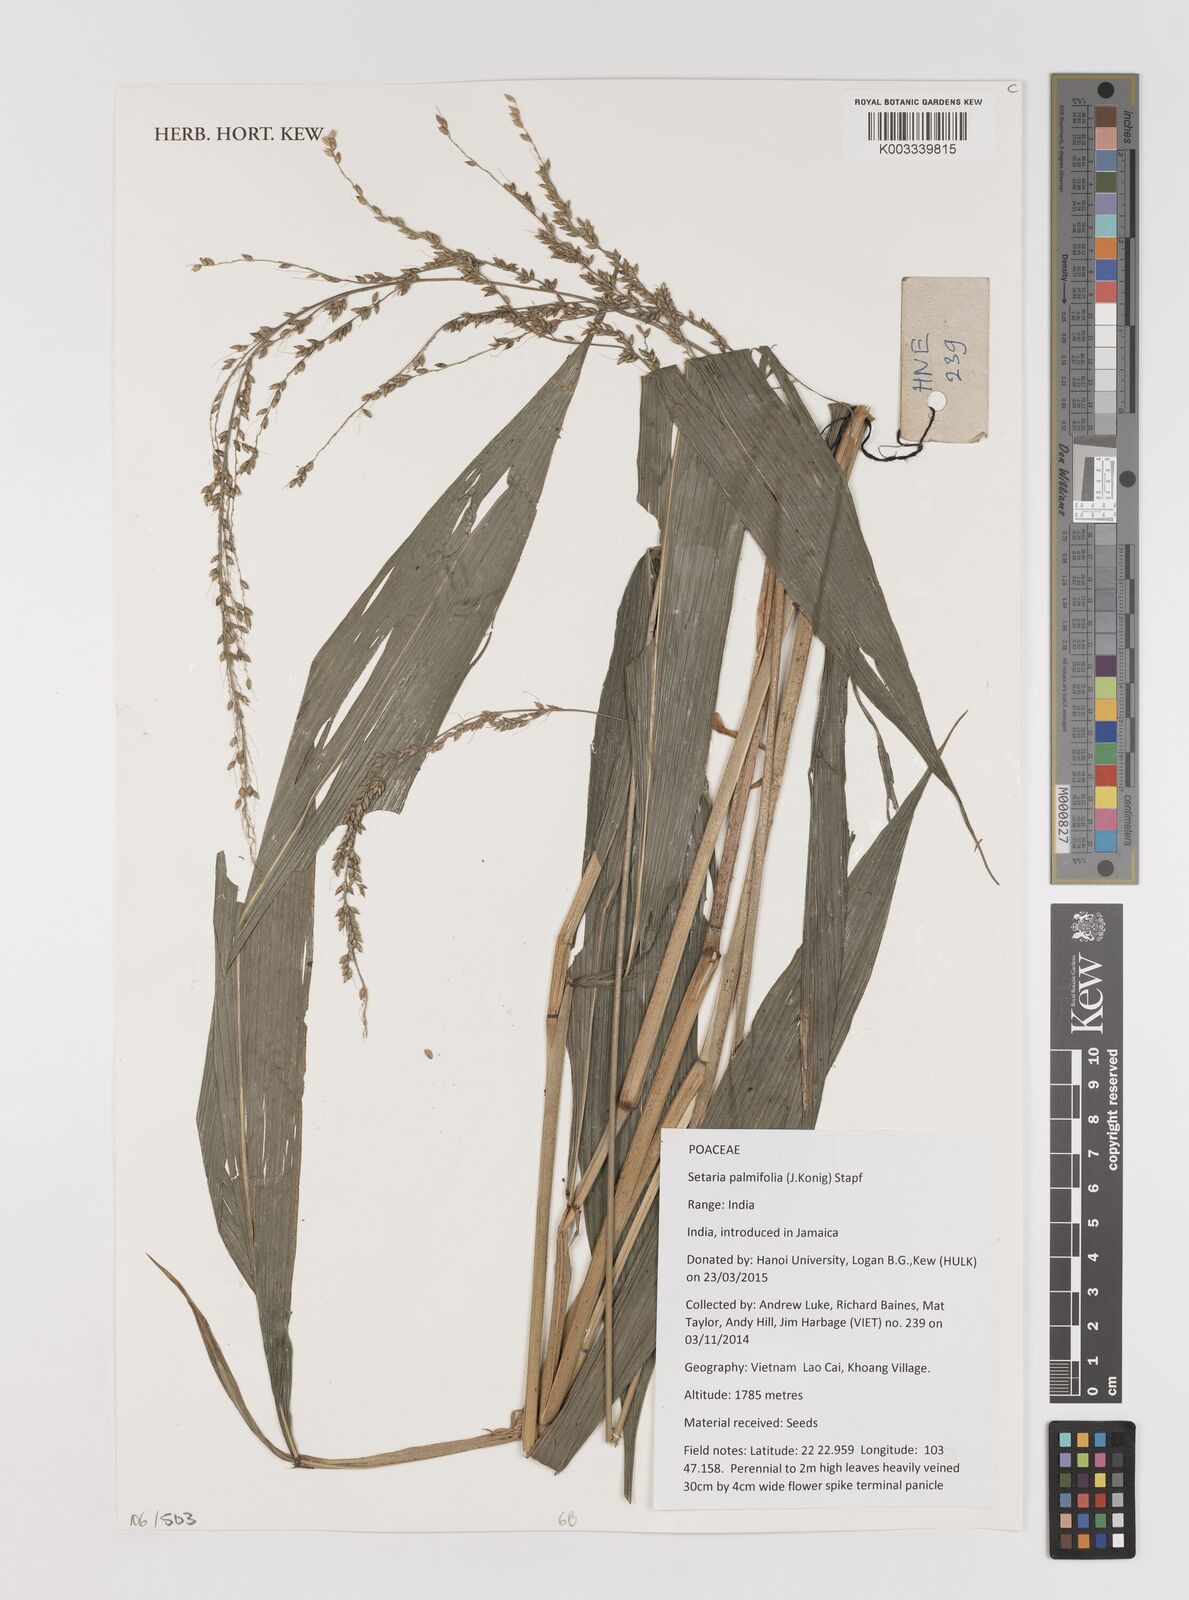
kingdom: Plantae
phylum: Tracheophyta
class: Liliopsida
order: Poales
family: Poaceae
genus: Setaria
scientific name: Setaria palmifolia
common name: Broadleaved bristlegrass
